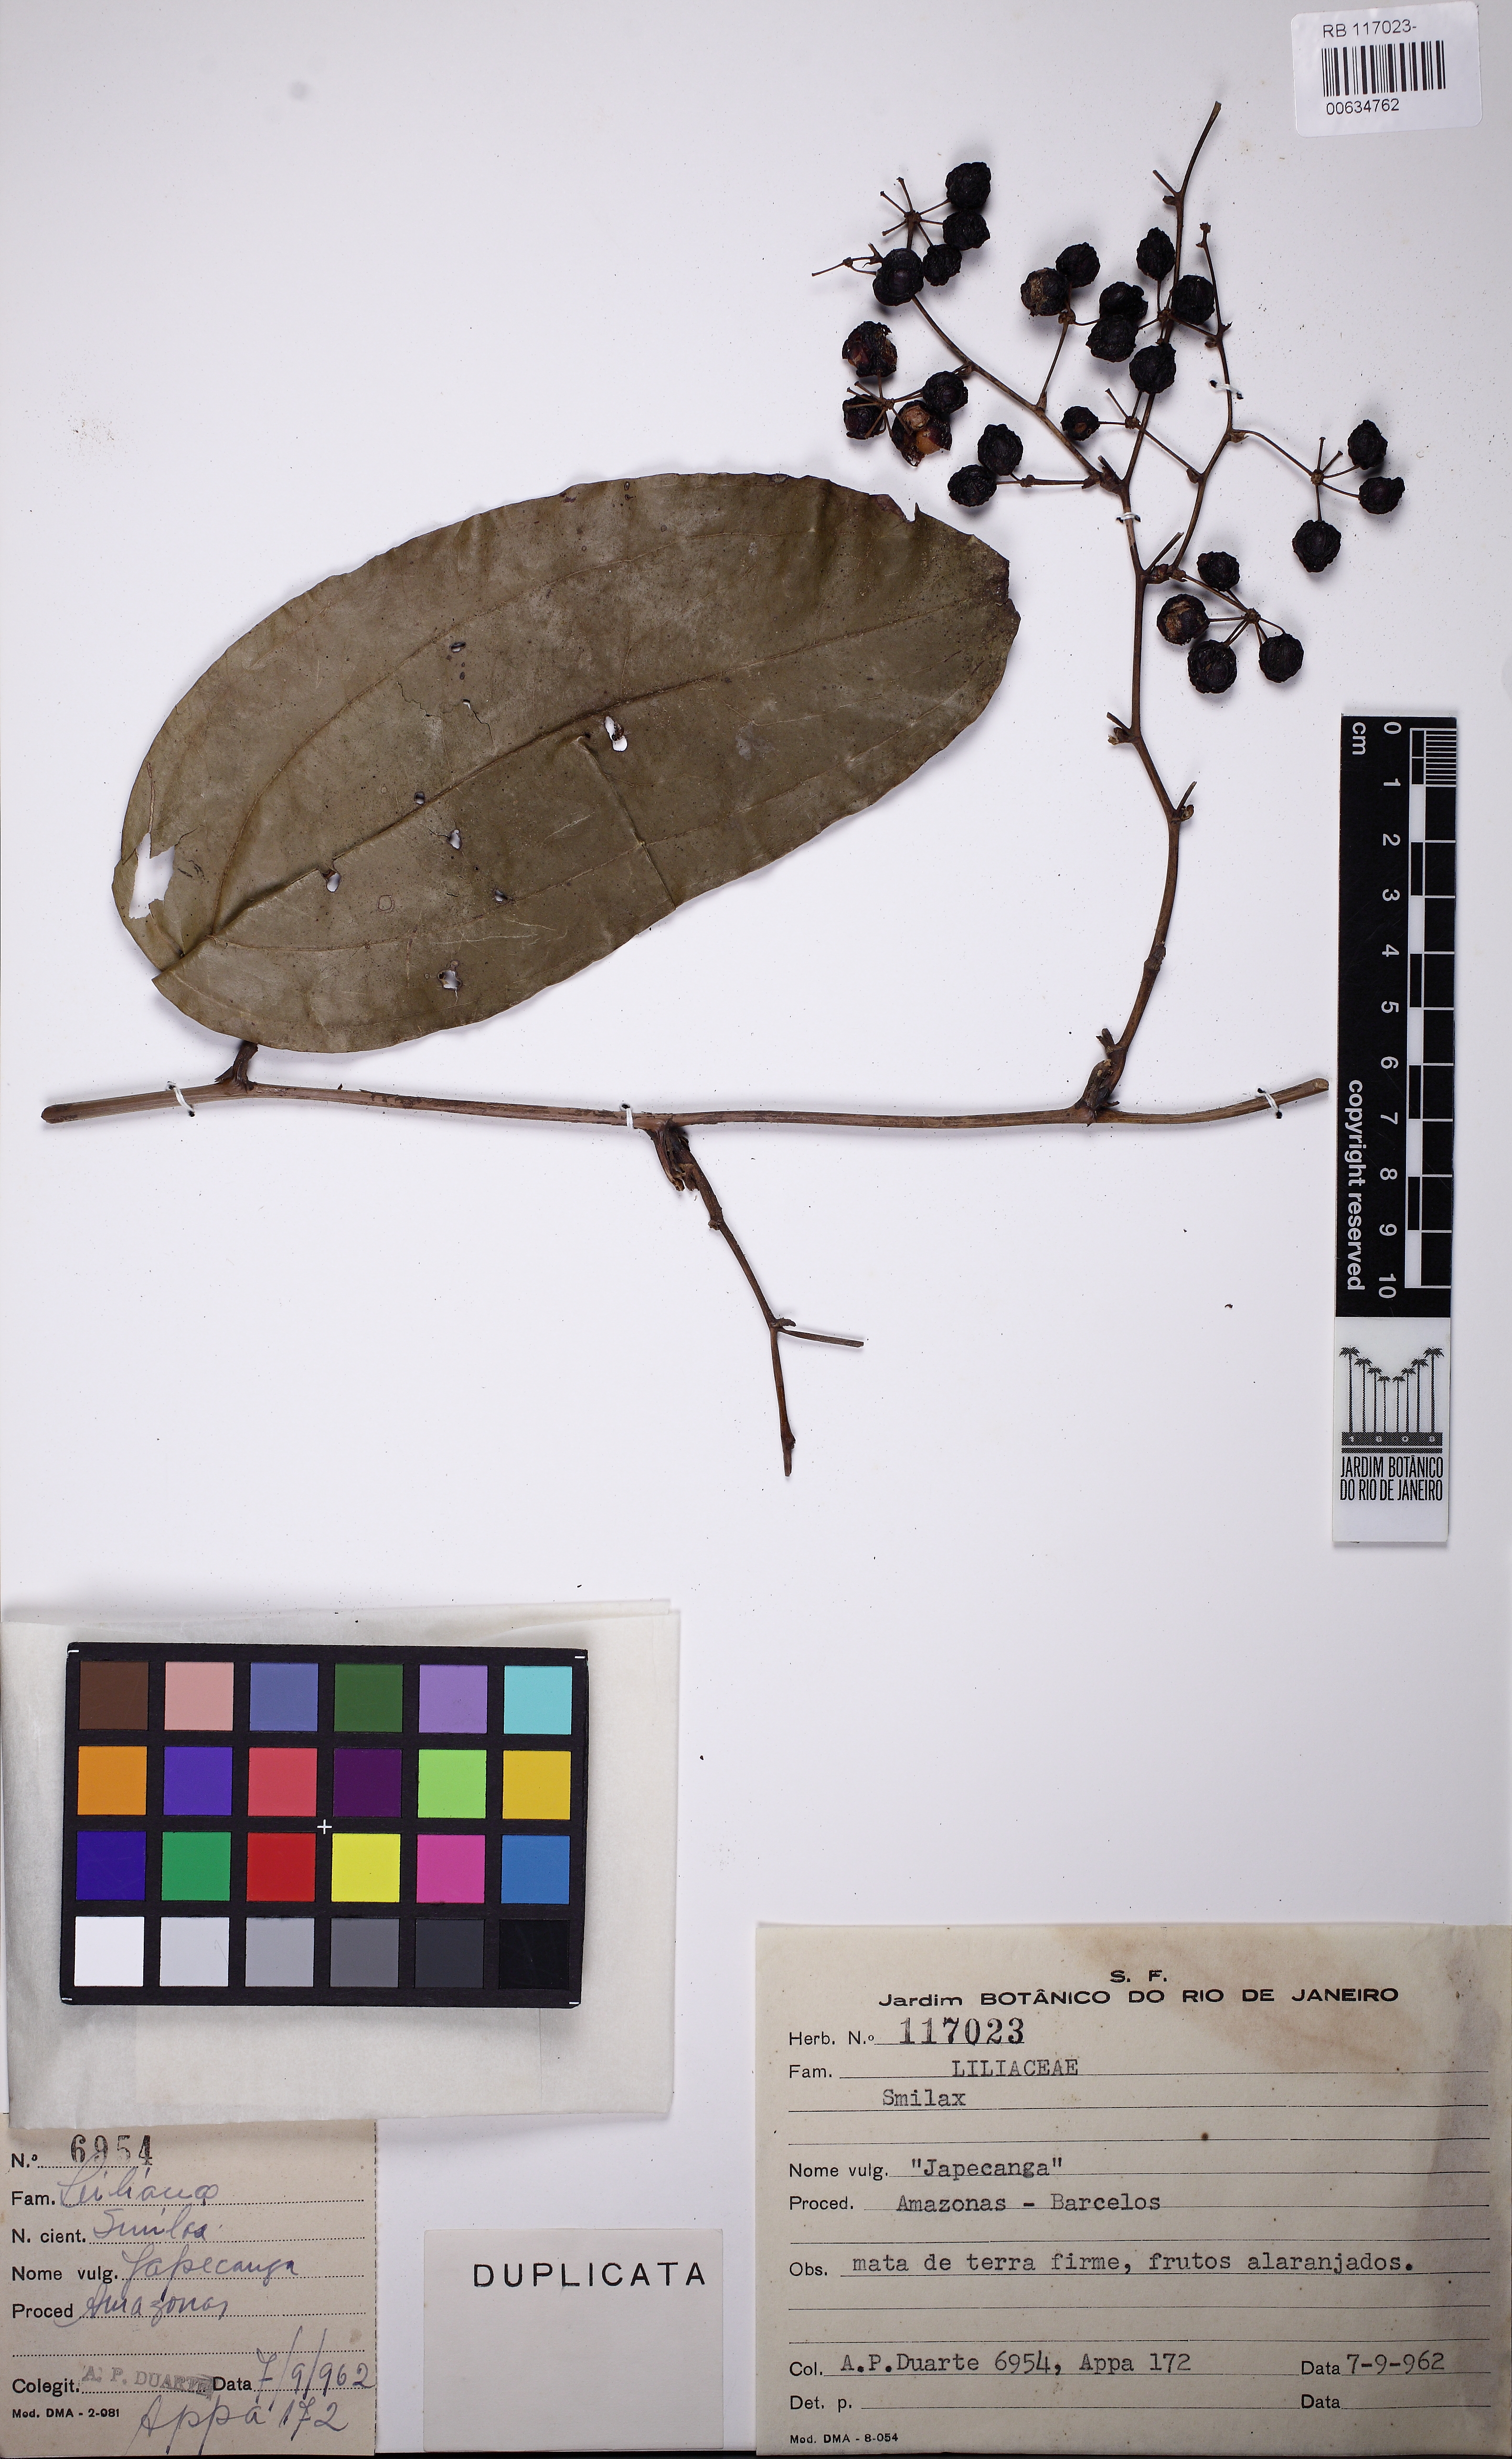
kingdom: Plantae
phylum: Tracheophyta
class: Liliopsida
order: Liliales
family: Smilacaceae
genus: Smilax
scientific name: Smilax
